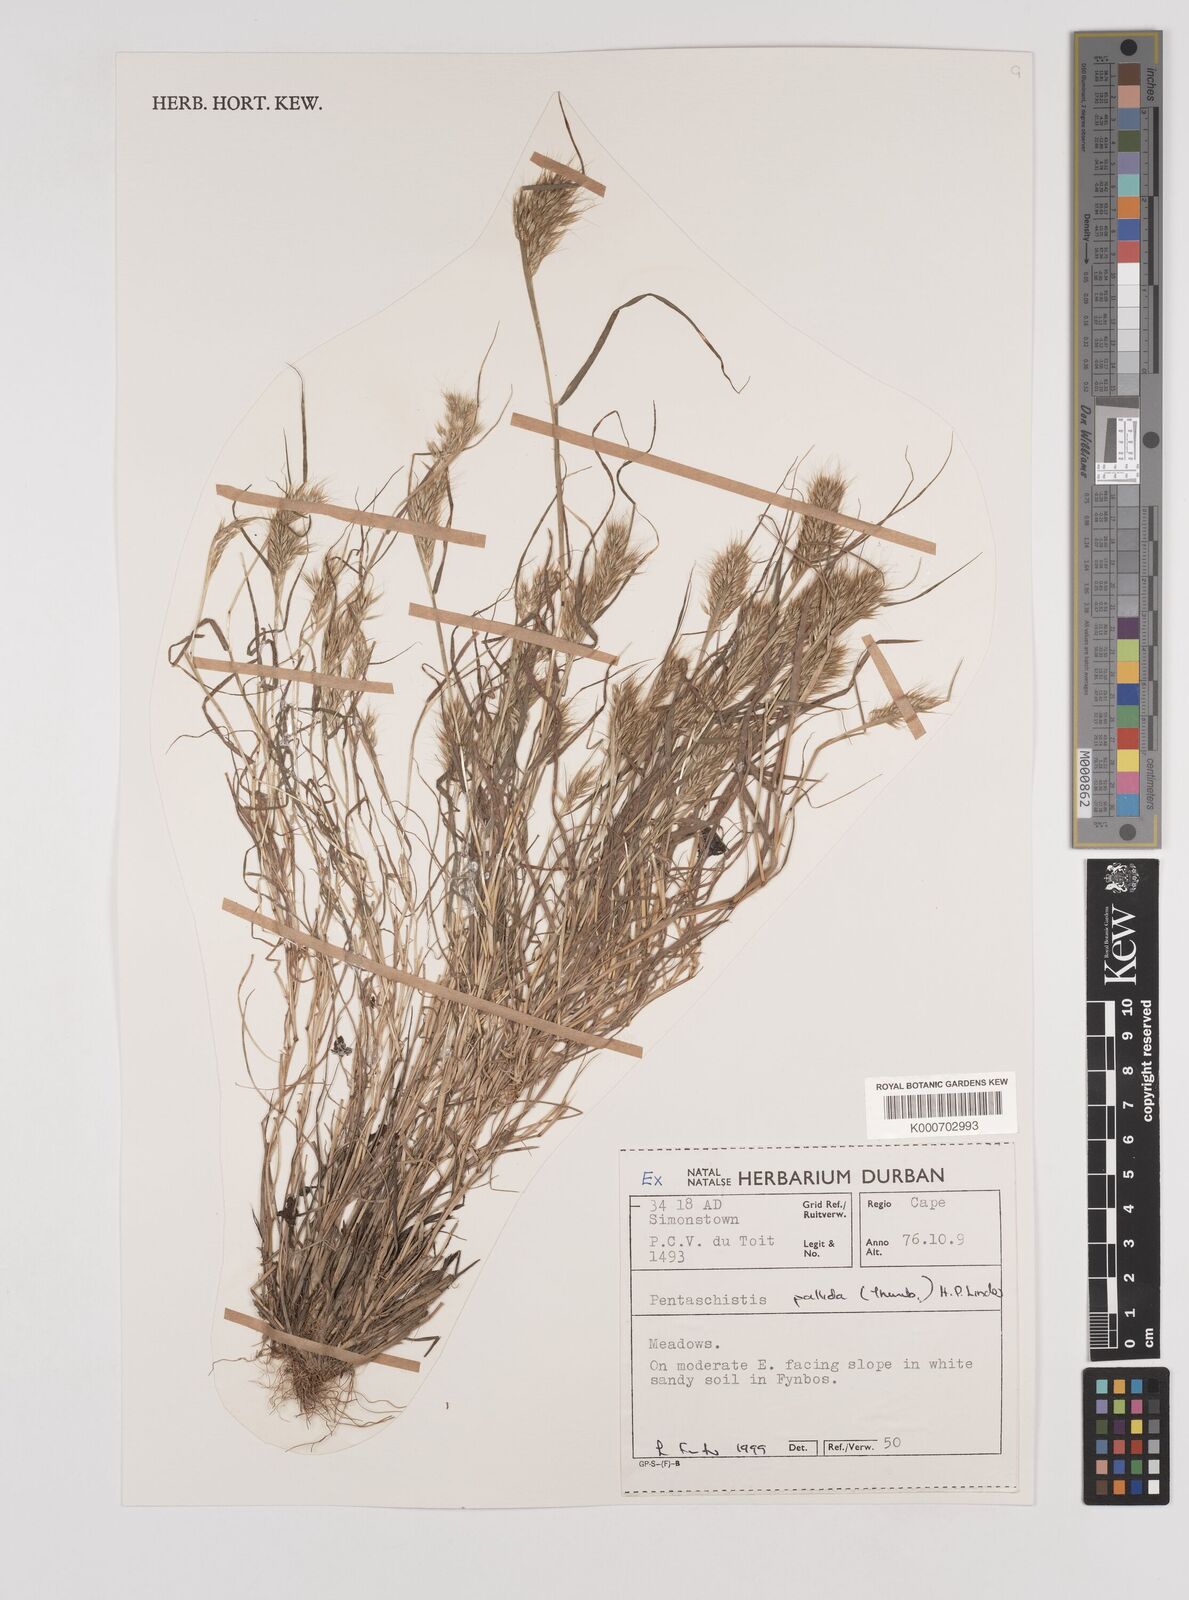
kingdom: Plantae
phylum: Tracheophyta
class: Liliopsida
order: Poales
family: Poaceae
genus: Pentameris
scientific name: Pentameris pallida
